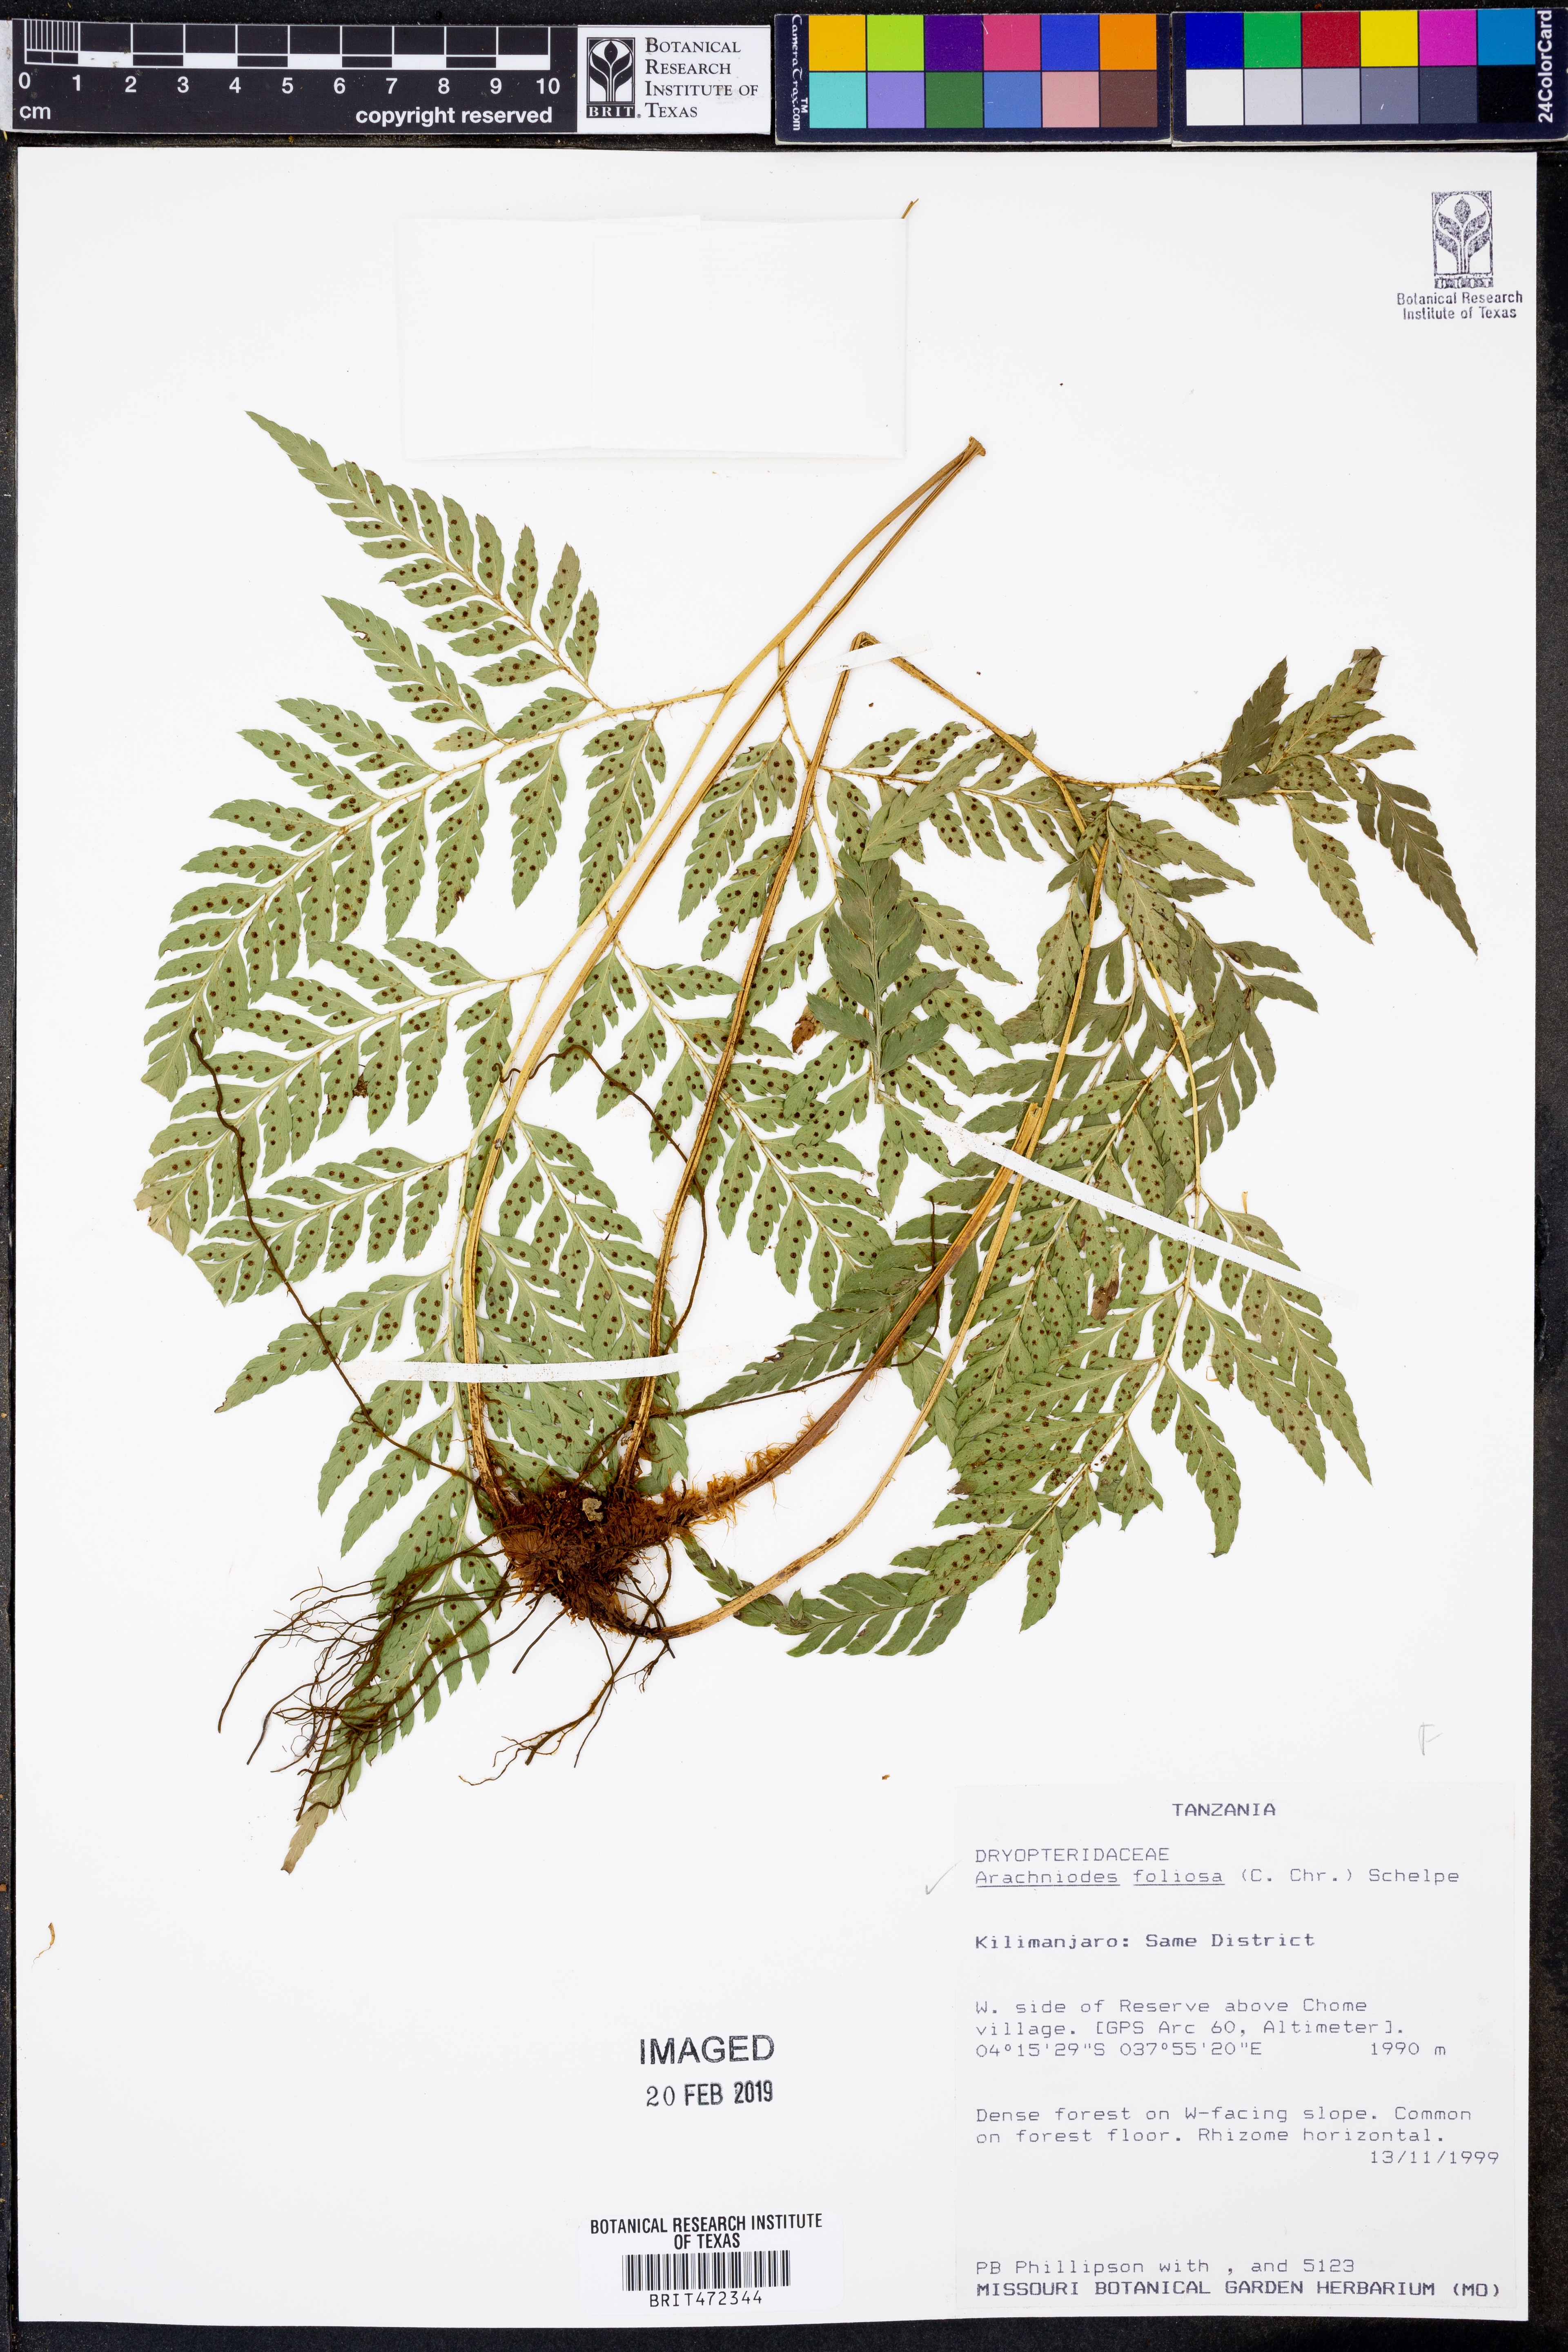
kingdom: Plantae
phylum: Tracheophyta
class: Polypodiopsida
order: Polypodiales
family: Dryopteridaceae
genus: Arachniodes
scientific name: Arachniodes webbiana
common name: Madeira holly fern
